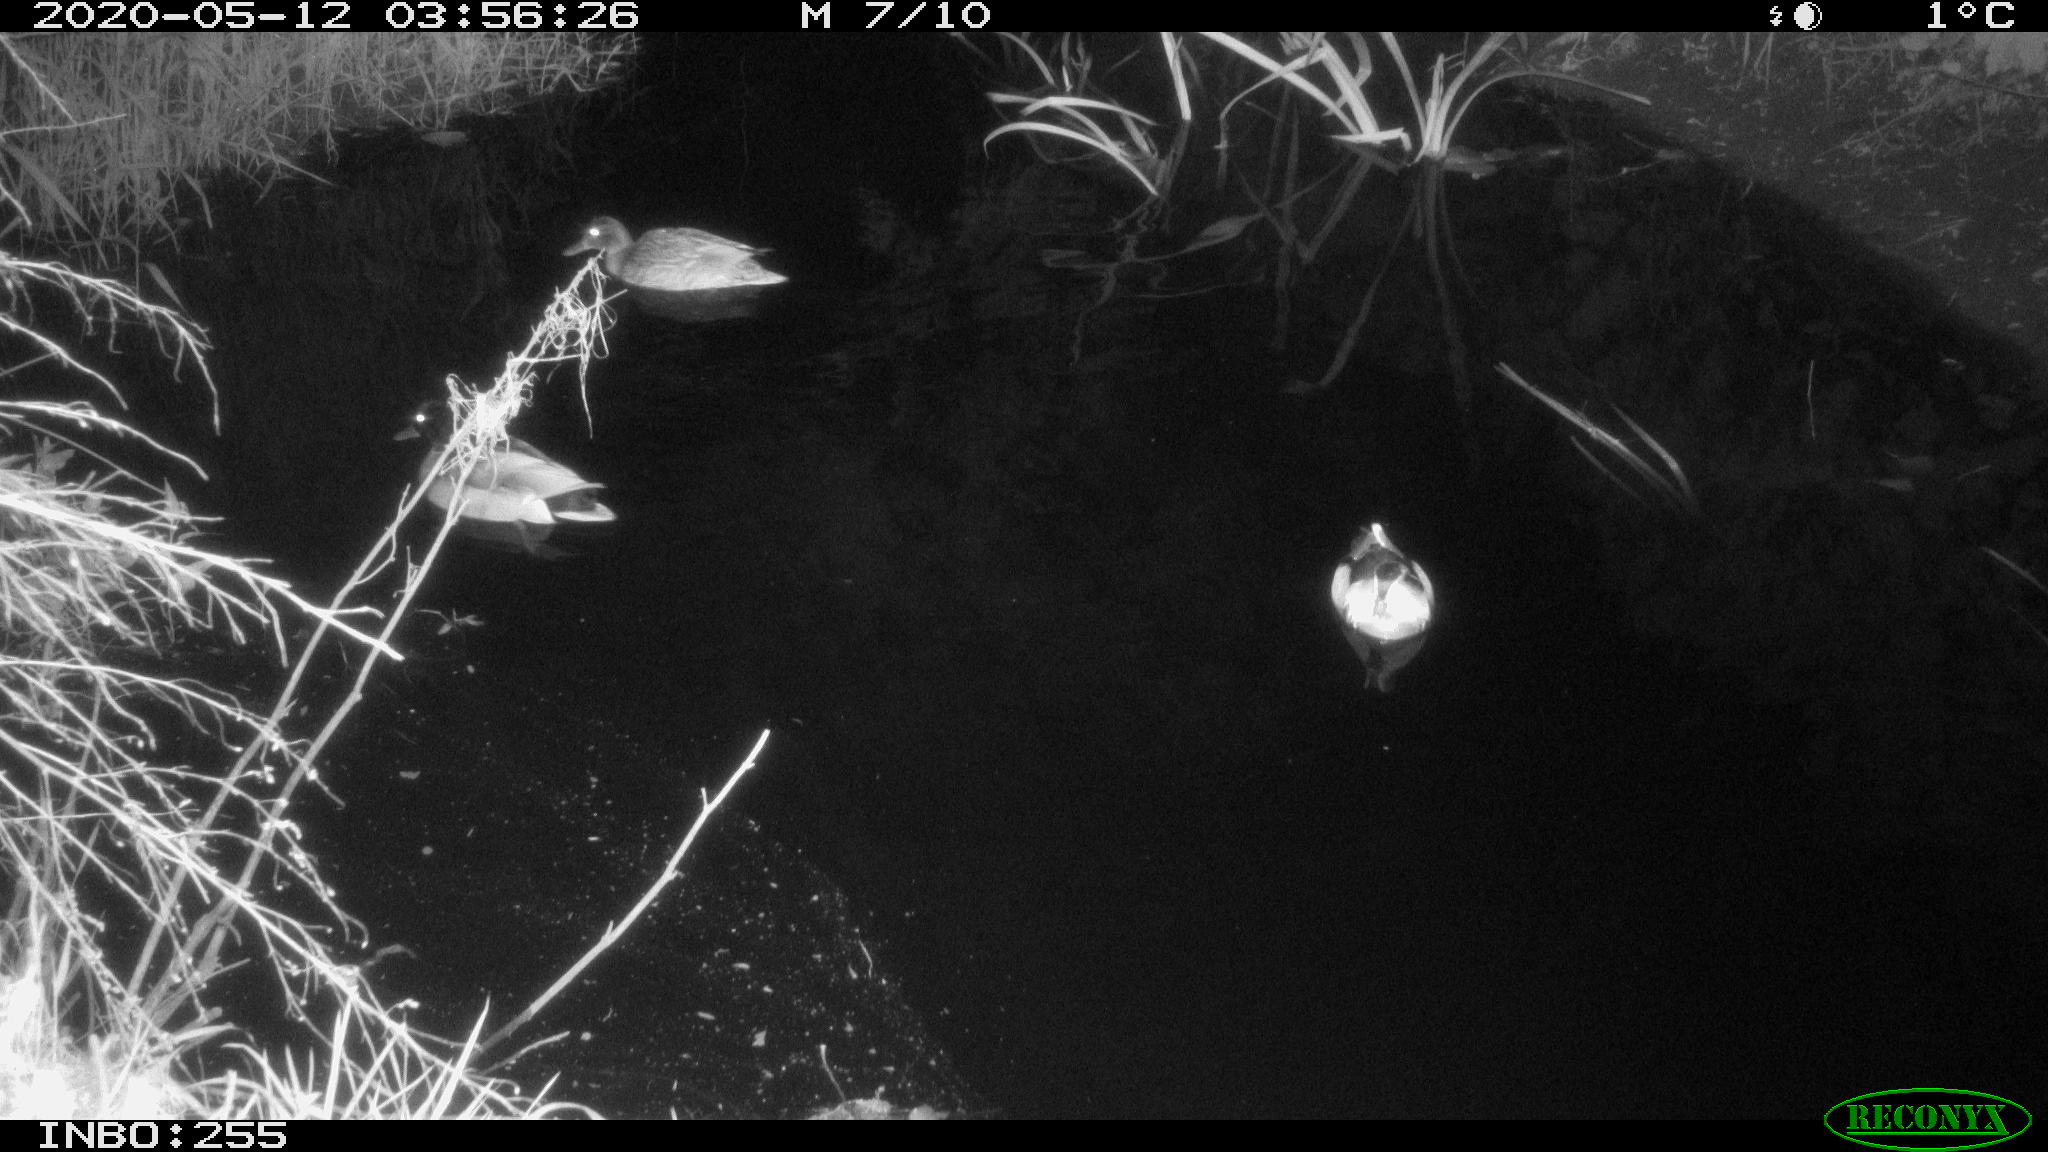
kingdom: Animalia
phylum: Chordata
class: Aves
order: Anseriformes
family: Anatidae
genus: Anas
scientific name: Anas platyrhynchos
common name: Mallard
